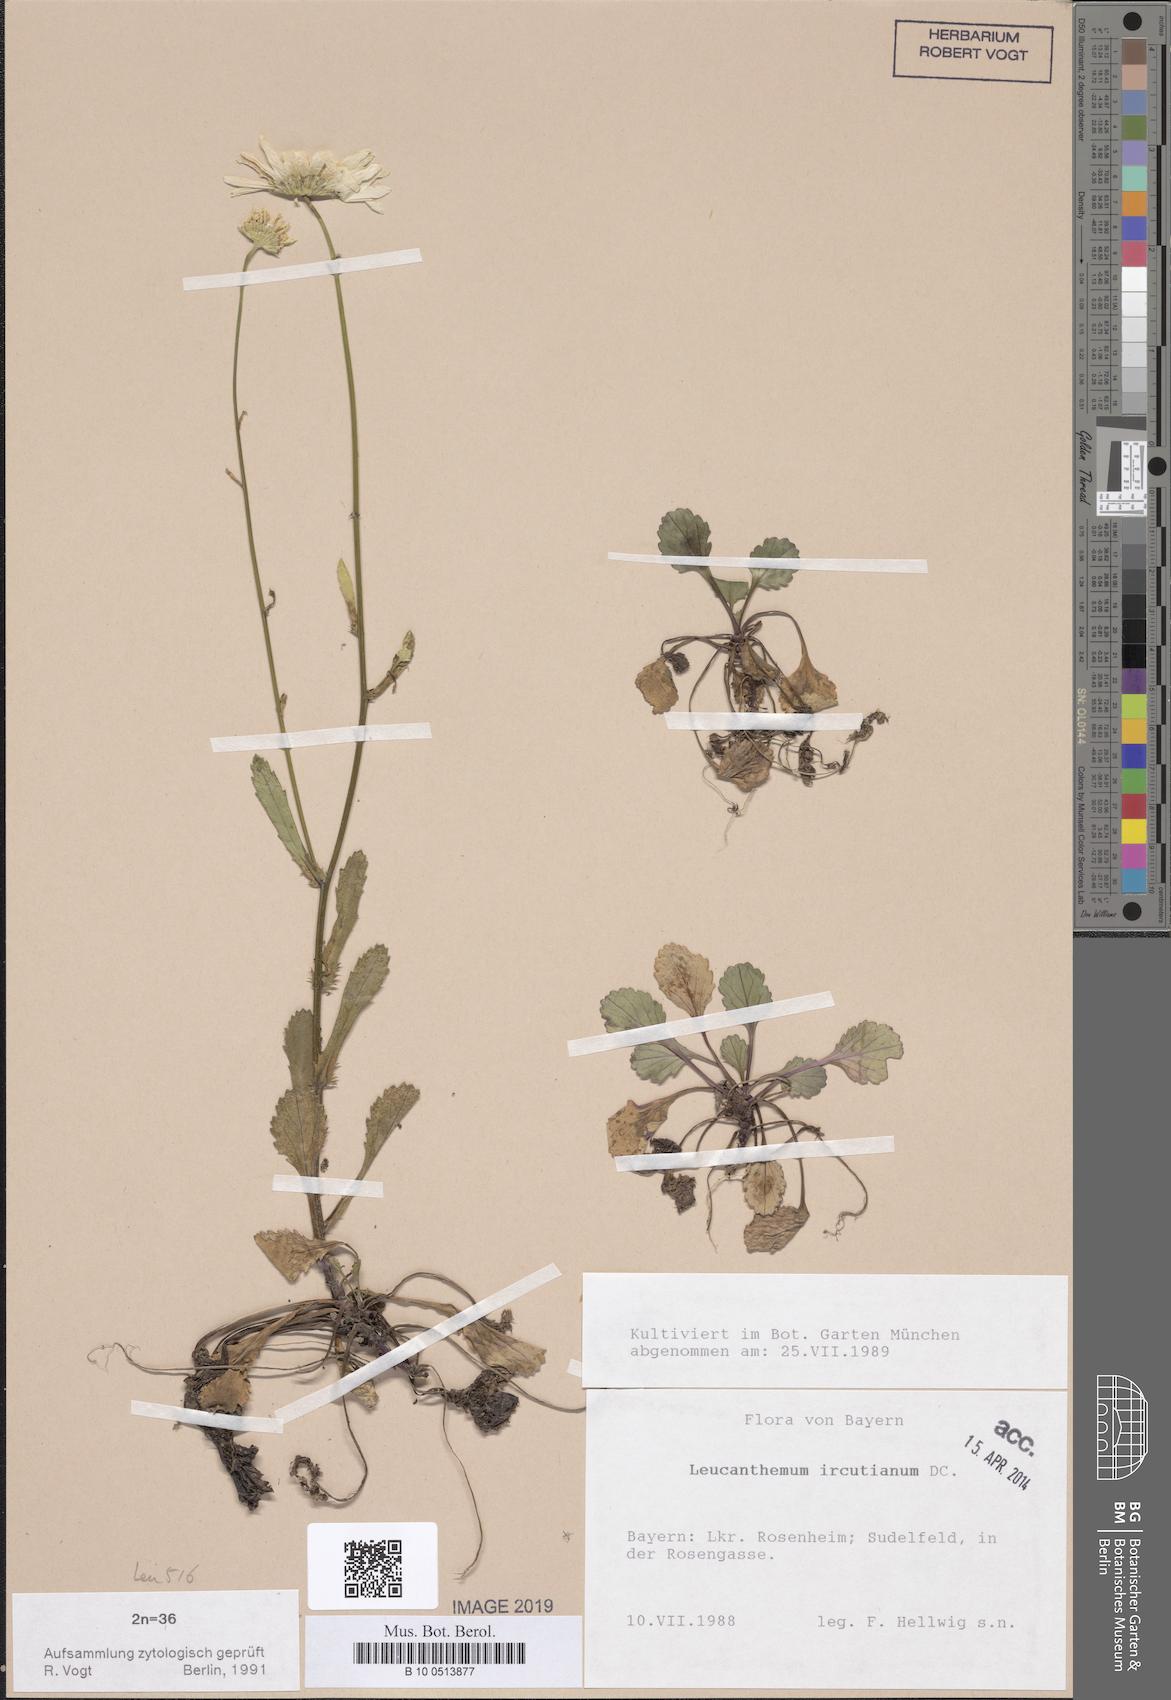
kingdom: Plantae
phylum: Tracheophyta
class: Magnoliopsida
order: Asterales
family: Asteraceae
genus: Leucanthemum
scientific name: Leucanthemum ircutianum
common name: Daisy
